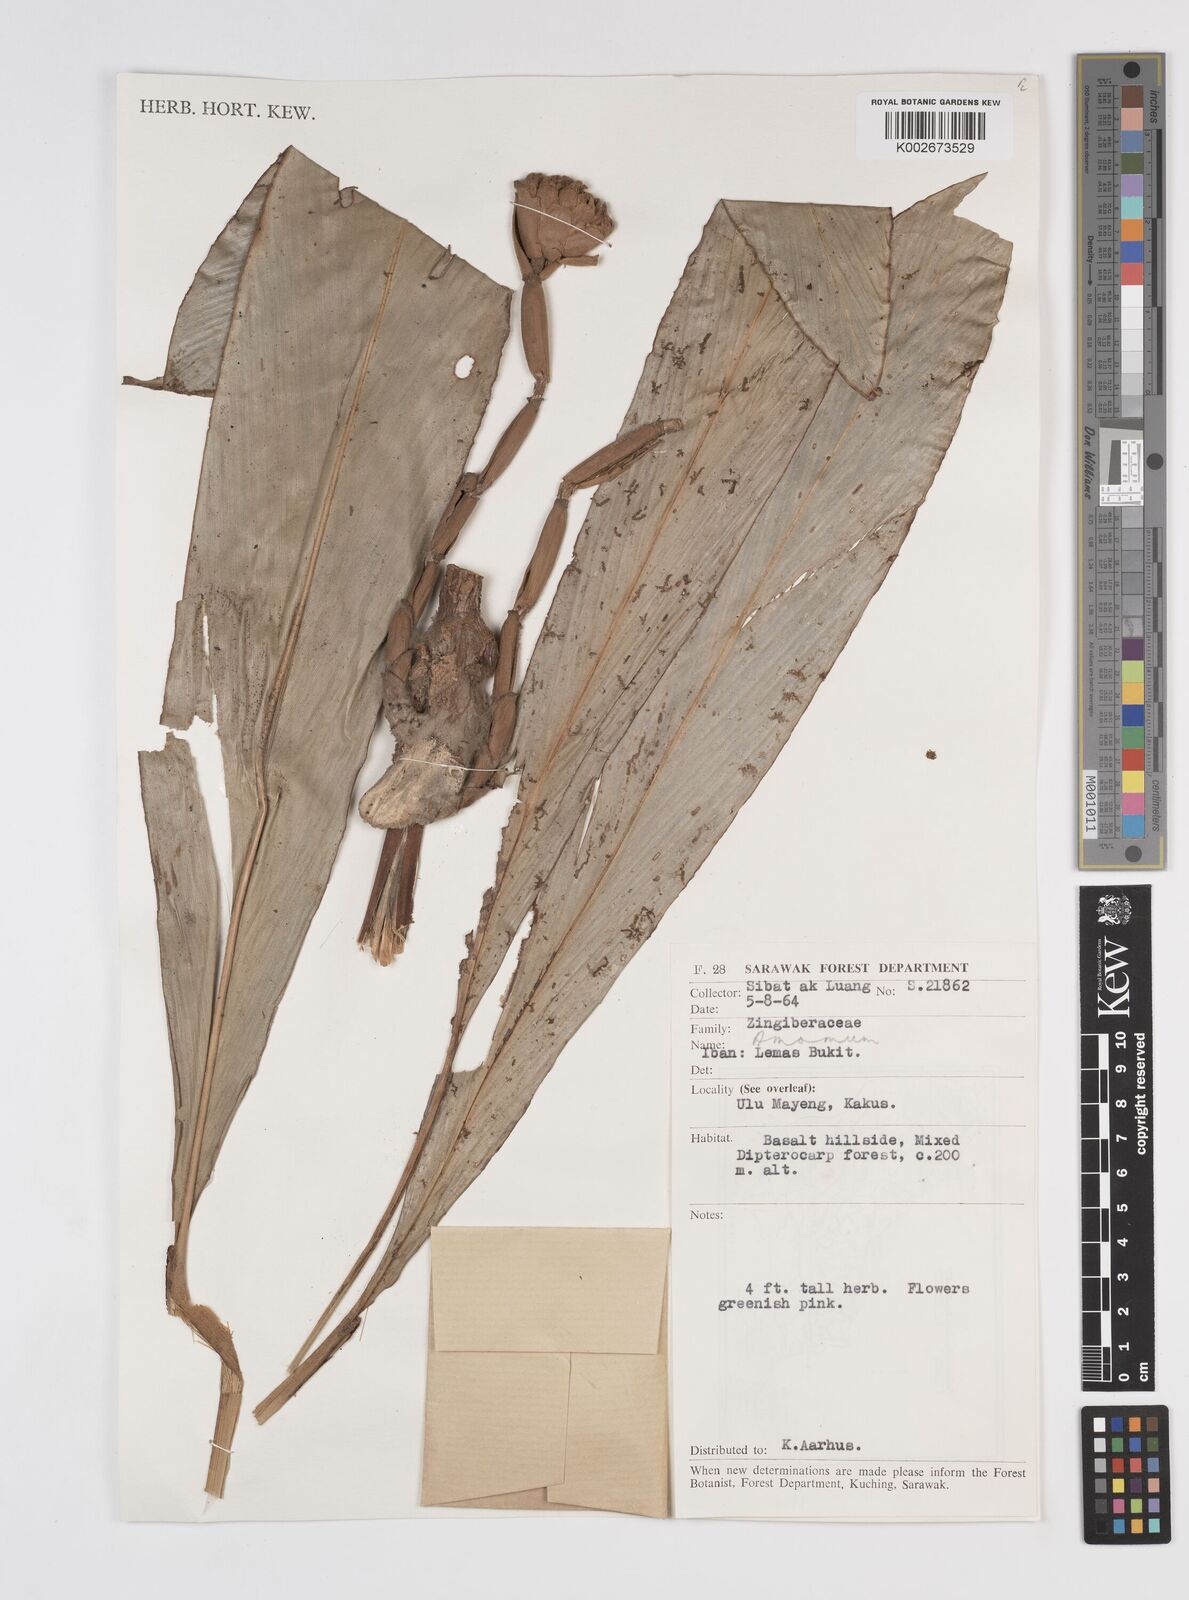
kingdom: Plantae
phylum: Tracheophyta
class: Liliopsida
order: Zingiberales
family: Zingiberaceae
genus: Amomum
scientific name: Amomum
